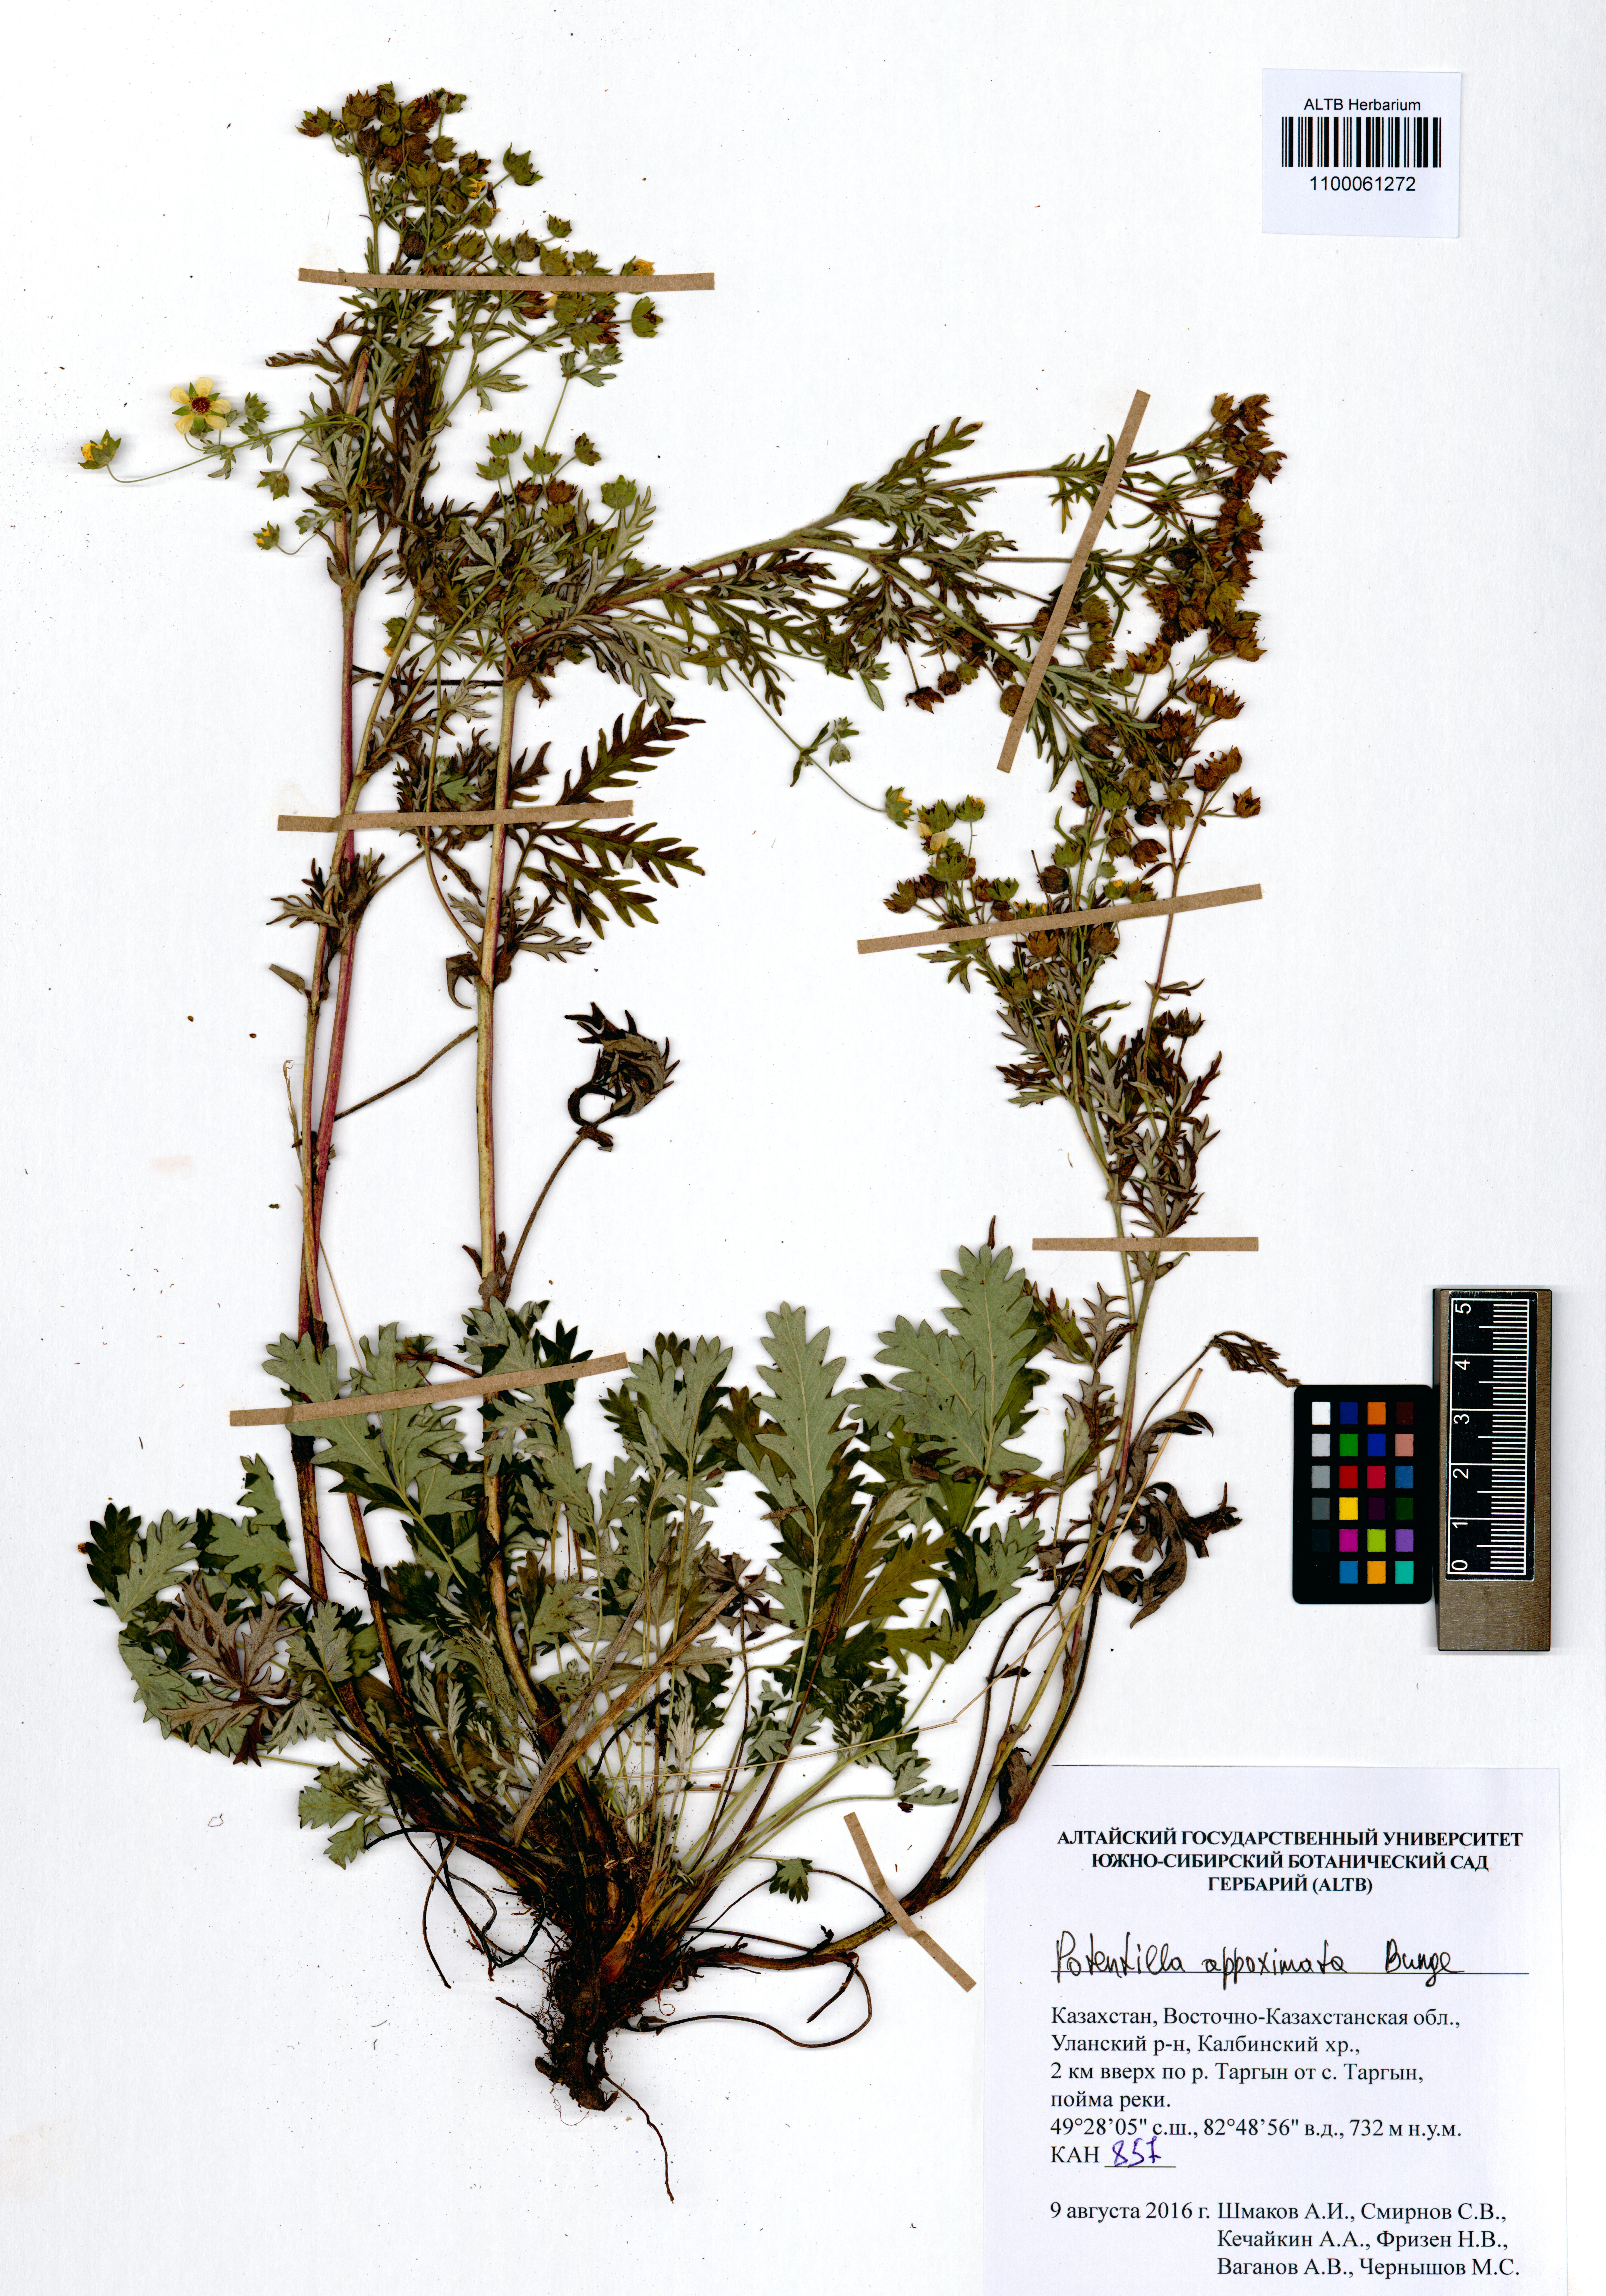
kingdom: Plantae
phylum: Tracheophyta
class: Magnoliopsida
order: Rosales
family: Rosaceae
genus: Potentilla
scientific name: Potentilla conferta
